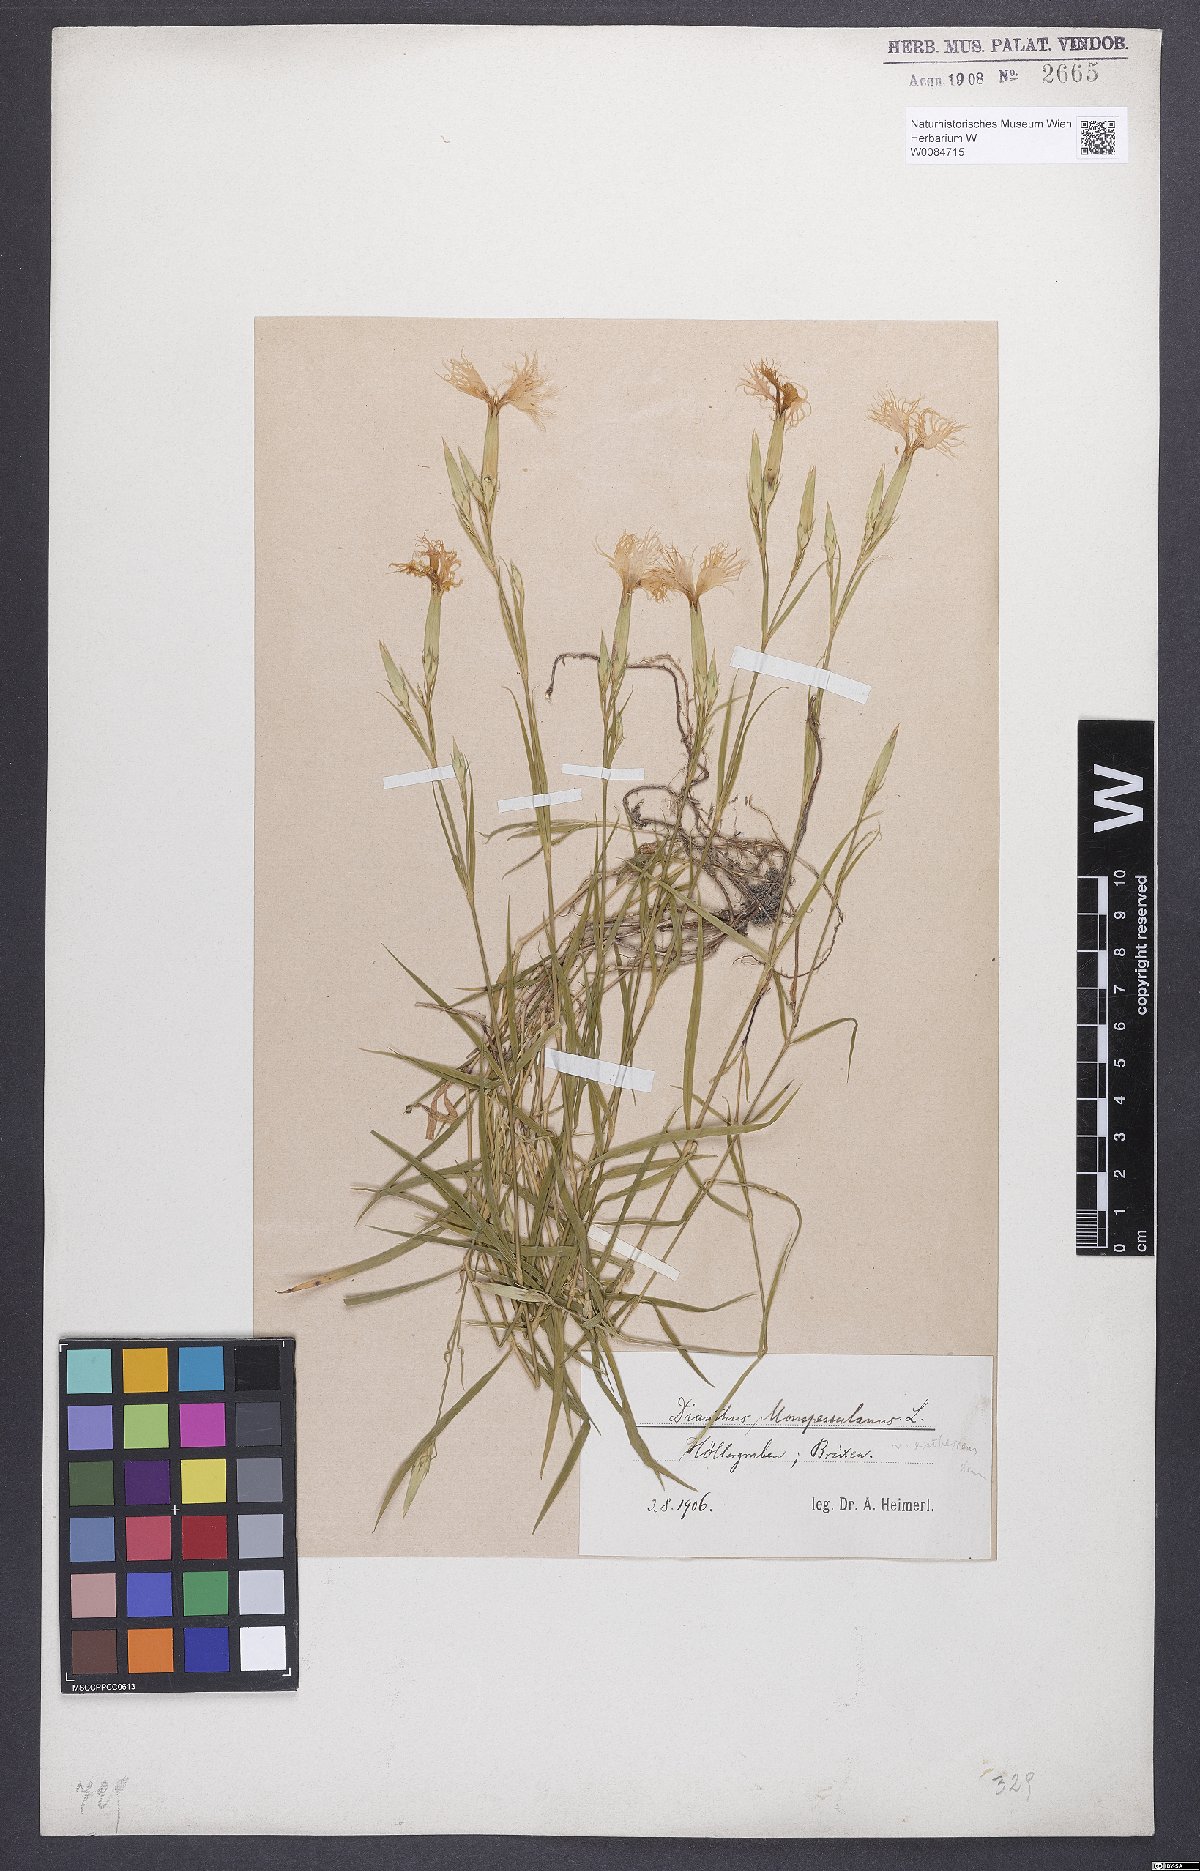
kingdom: Plantae
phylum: Tracheophyta
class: Magnoliopsida
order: Caryophyllales
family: Caryophyllaceae
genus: Dianthus
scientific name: Dianthus hyssopifolius
